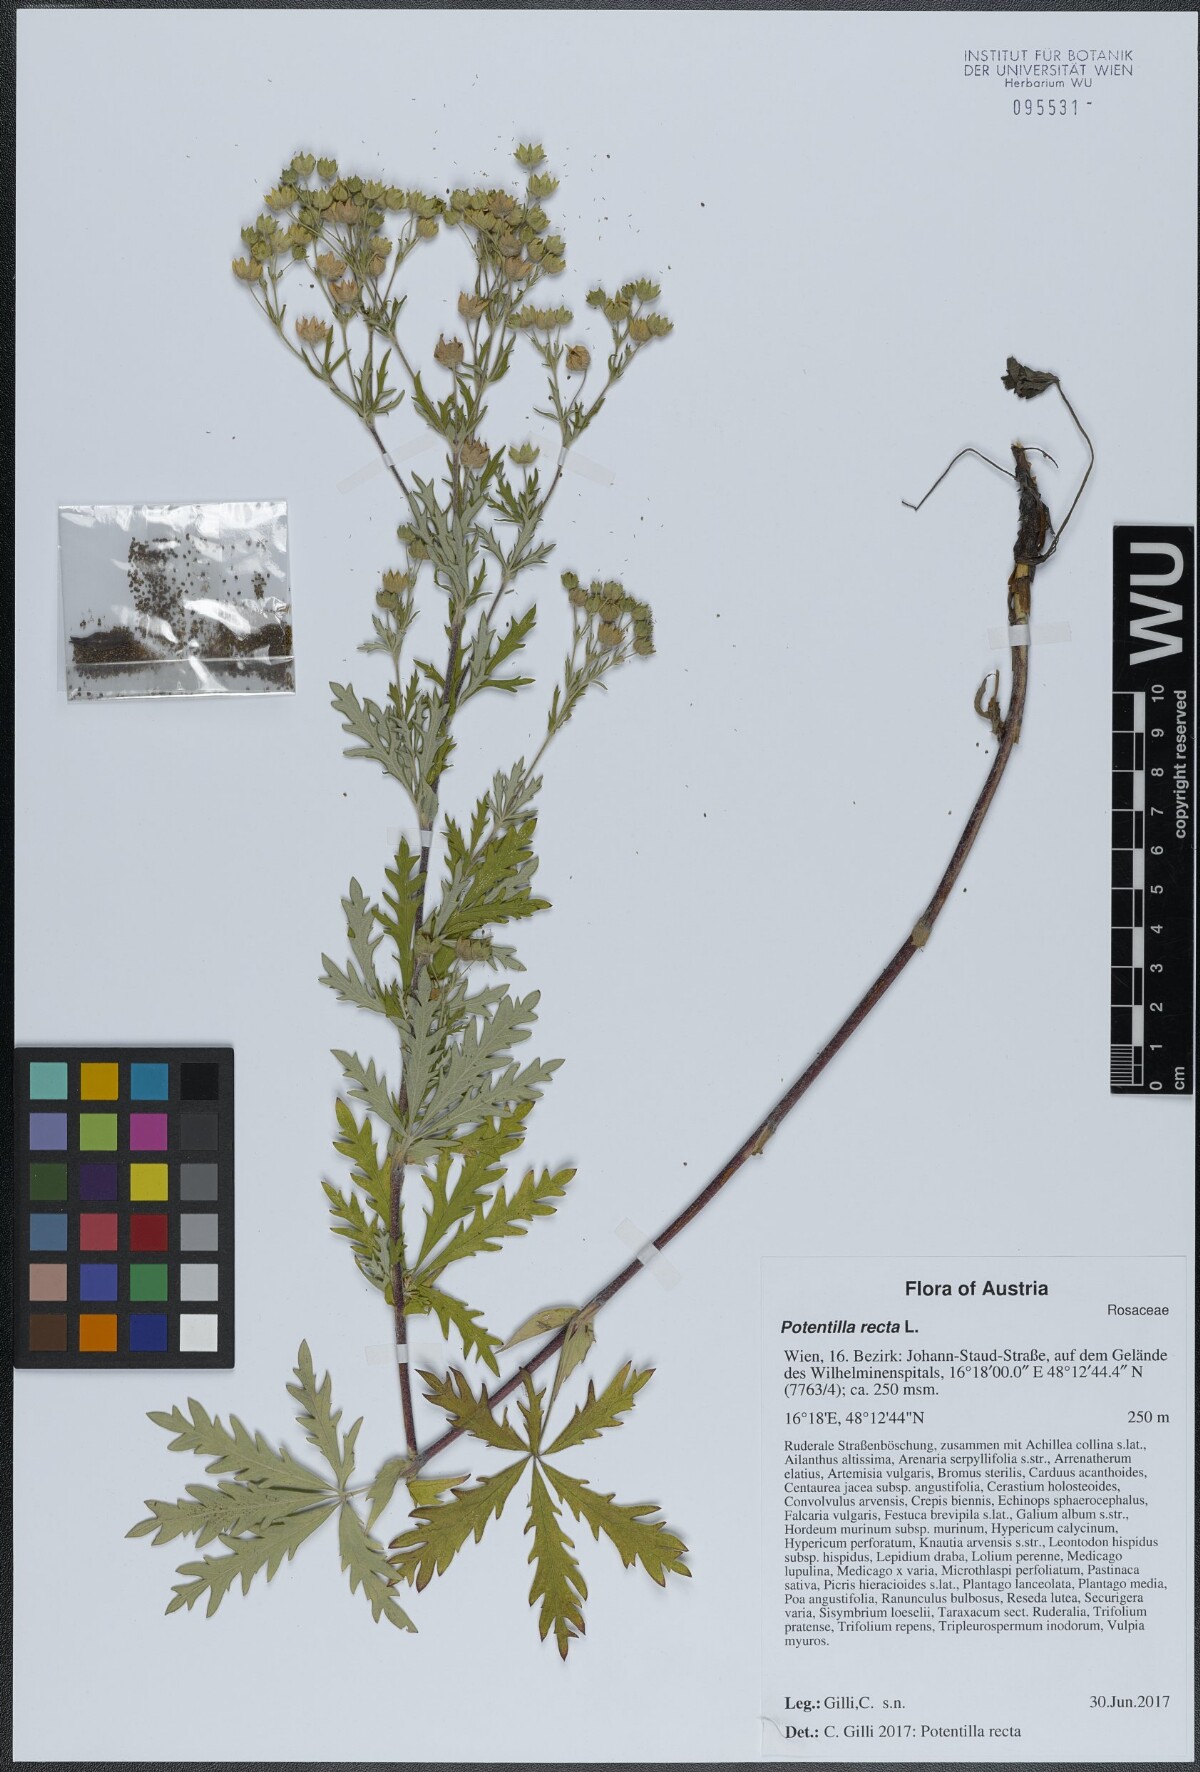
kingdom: Plantae
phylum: Tracheophyta
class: Magnoliopsida
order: Rosales
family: Rosaceae
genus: Potentilla
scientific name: Potentilla recta
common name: Sulphur cinquefoil
